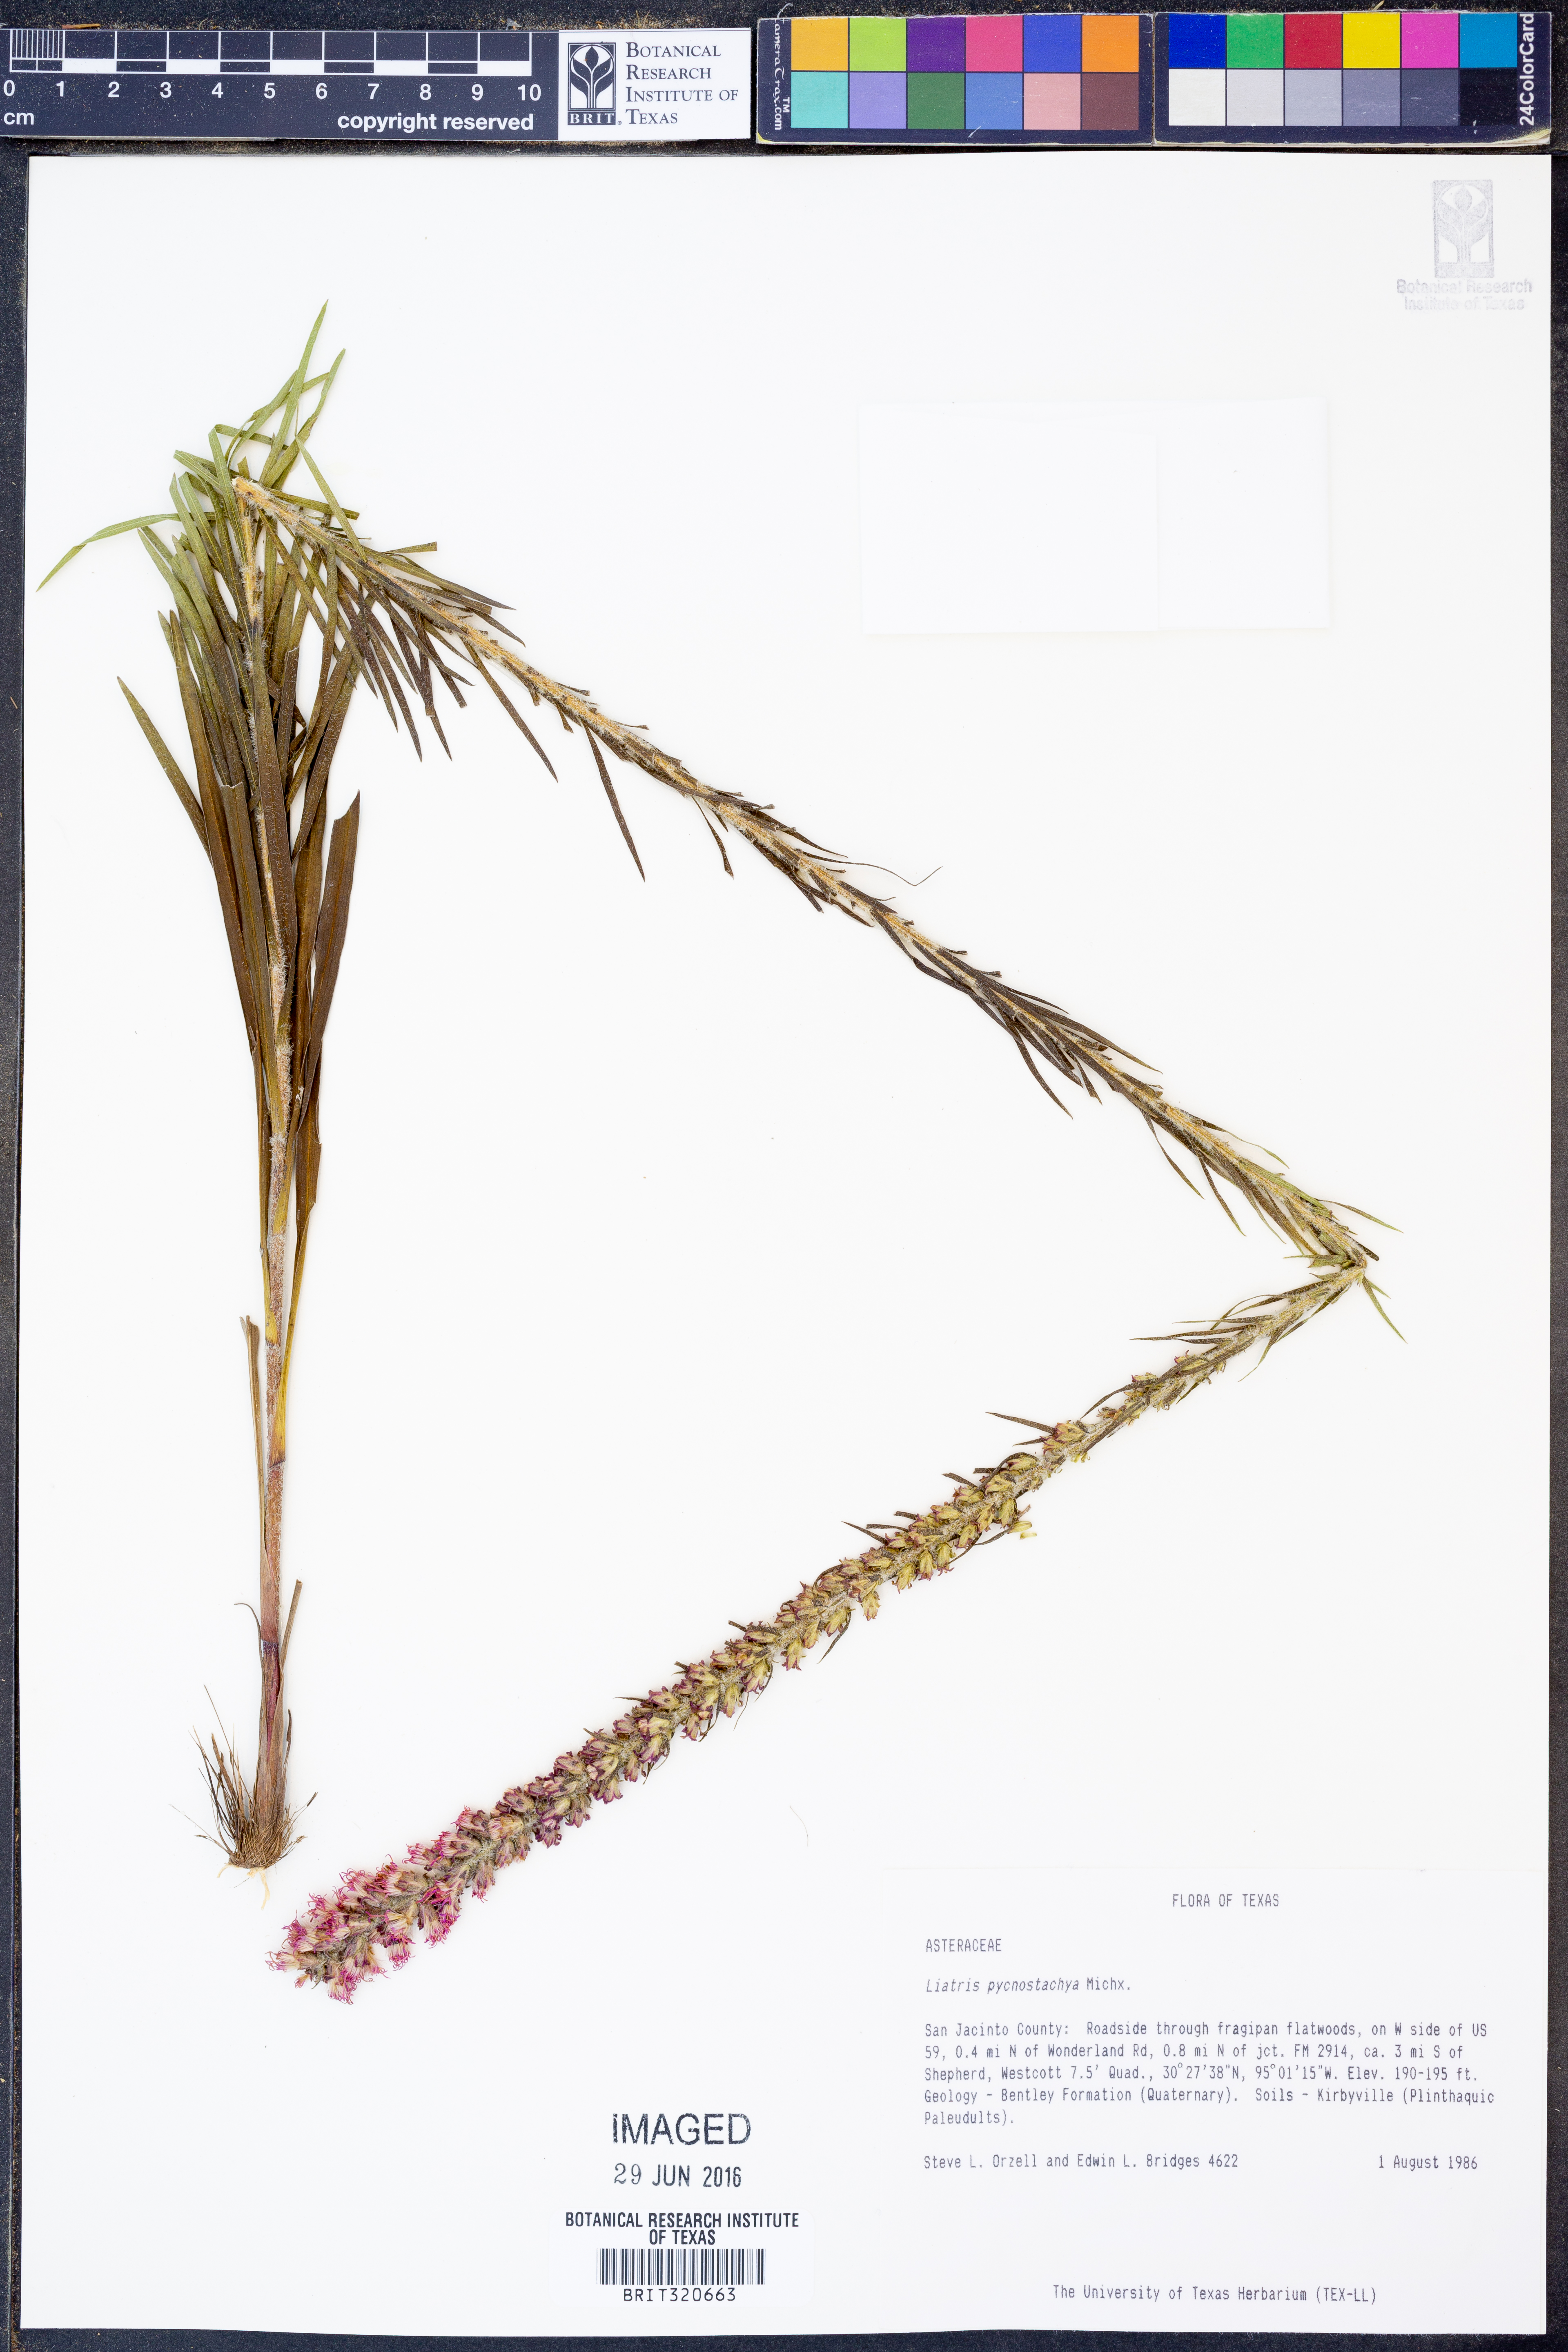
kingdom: Plantae
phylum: Tracheophyta
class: Magnoliopsida
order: Asterales
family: Asteraceae
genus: Liatris
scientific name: Liatris pycnostachya
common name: Cattail gayfeather
